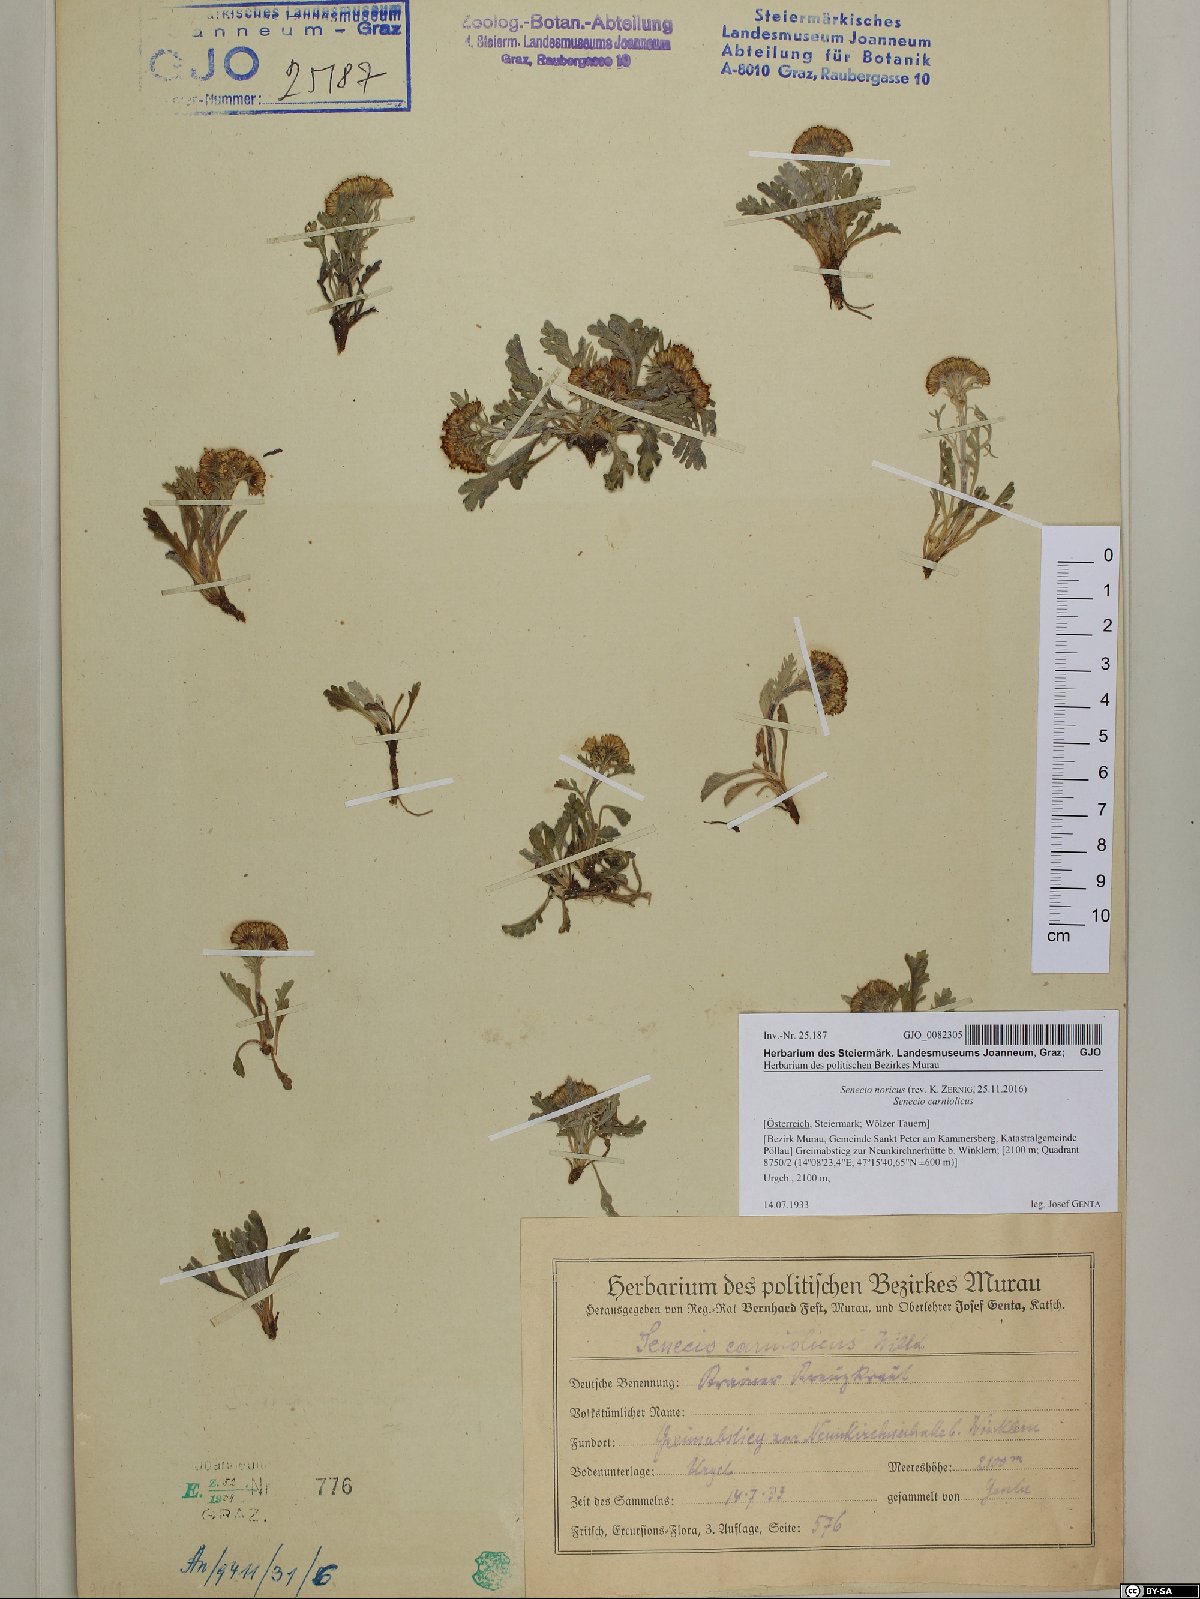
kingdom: Plantae
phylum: Tracheophyta
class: Magnoliopsida
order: Asterales
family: Asteraceae
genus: Jacobaea
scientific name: Jacobaea norica
